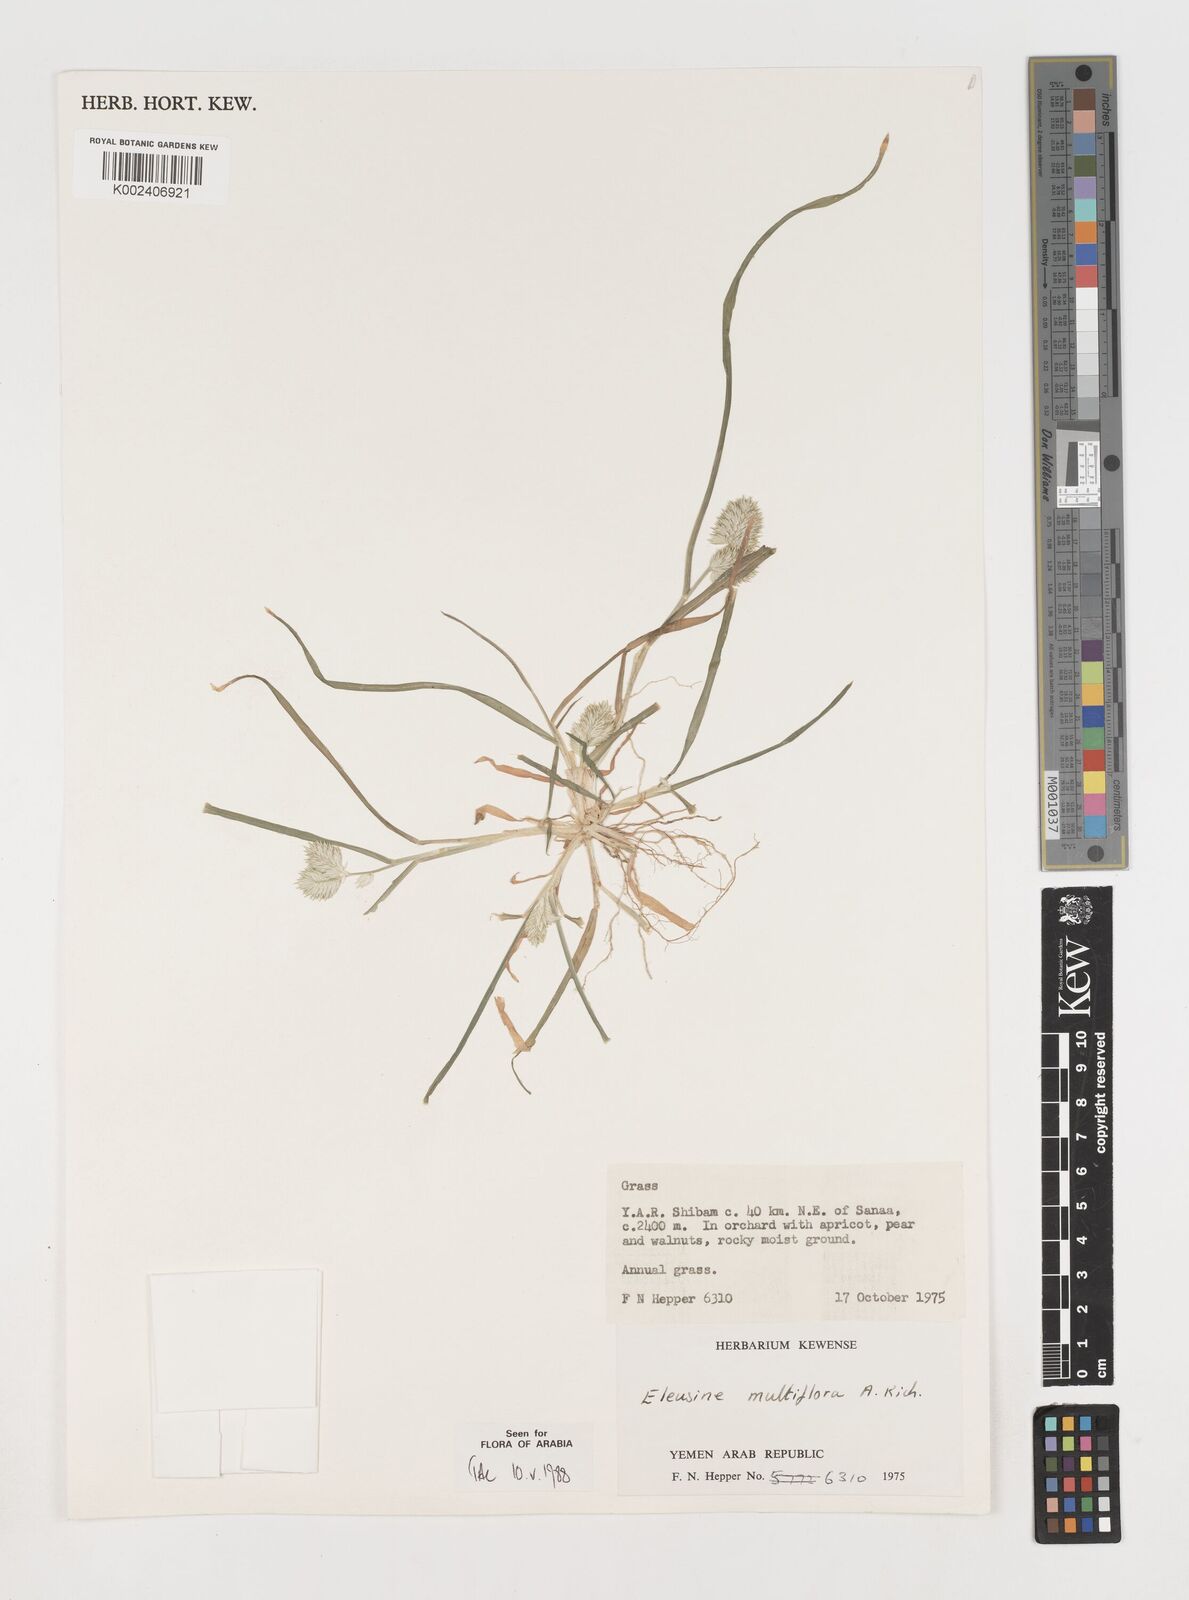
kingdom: Plantae
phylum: Tracheophyta
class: Liliopsida
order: Poales
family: Poaceae
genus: Eleusine
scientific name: Eleusine multiflora
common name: Fat-spiked yard-grass
